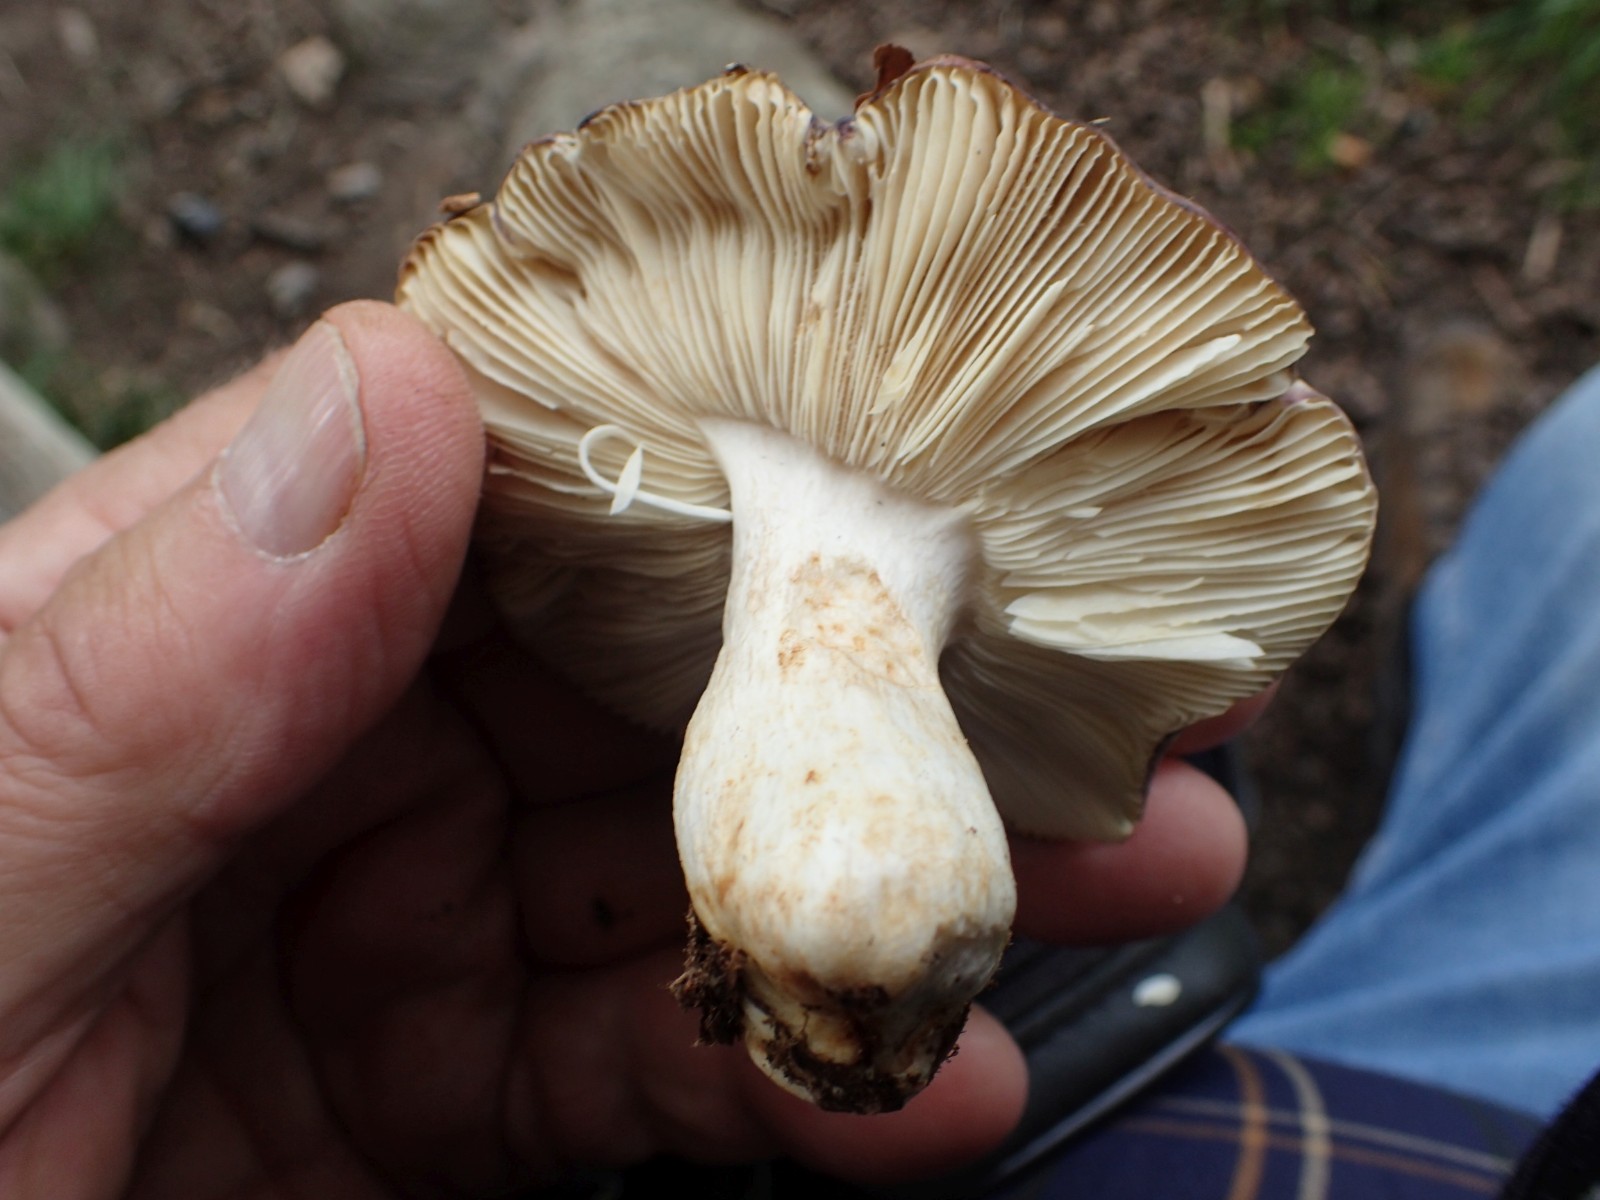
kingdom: Fungi
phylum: Basidiomycota
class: Agaricomycetes
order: Russulales
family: Russulaceae
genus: Russula
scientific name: Russula atropurpurea
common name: purpurbroget skørhat
